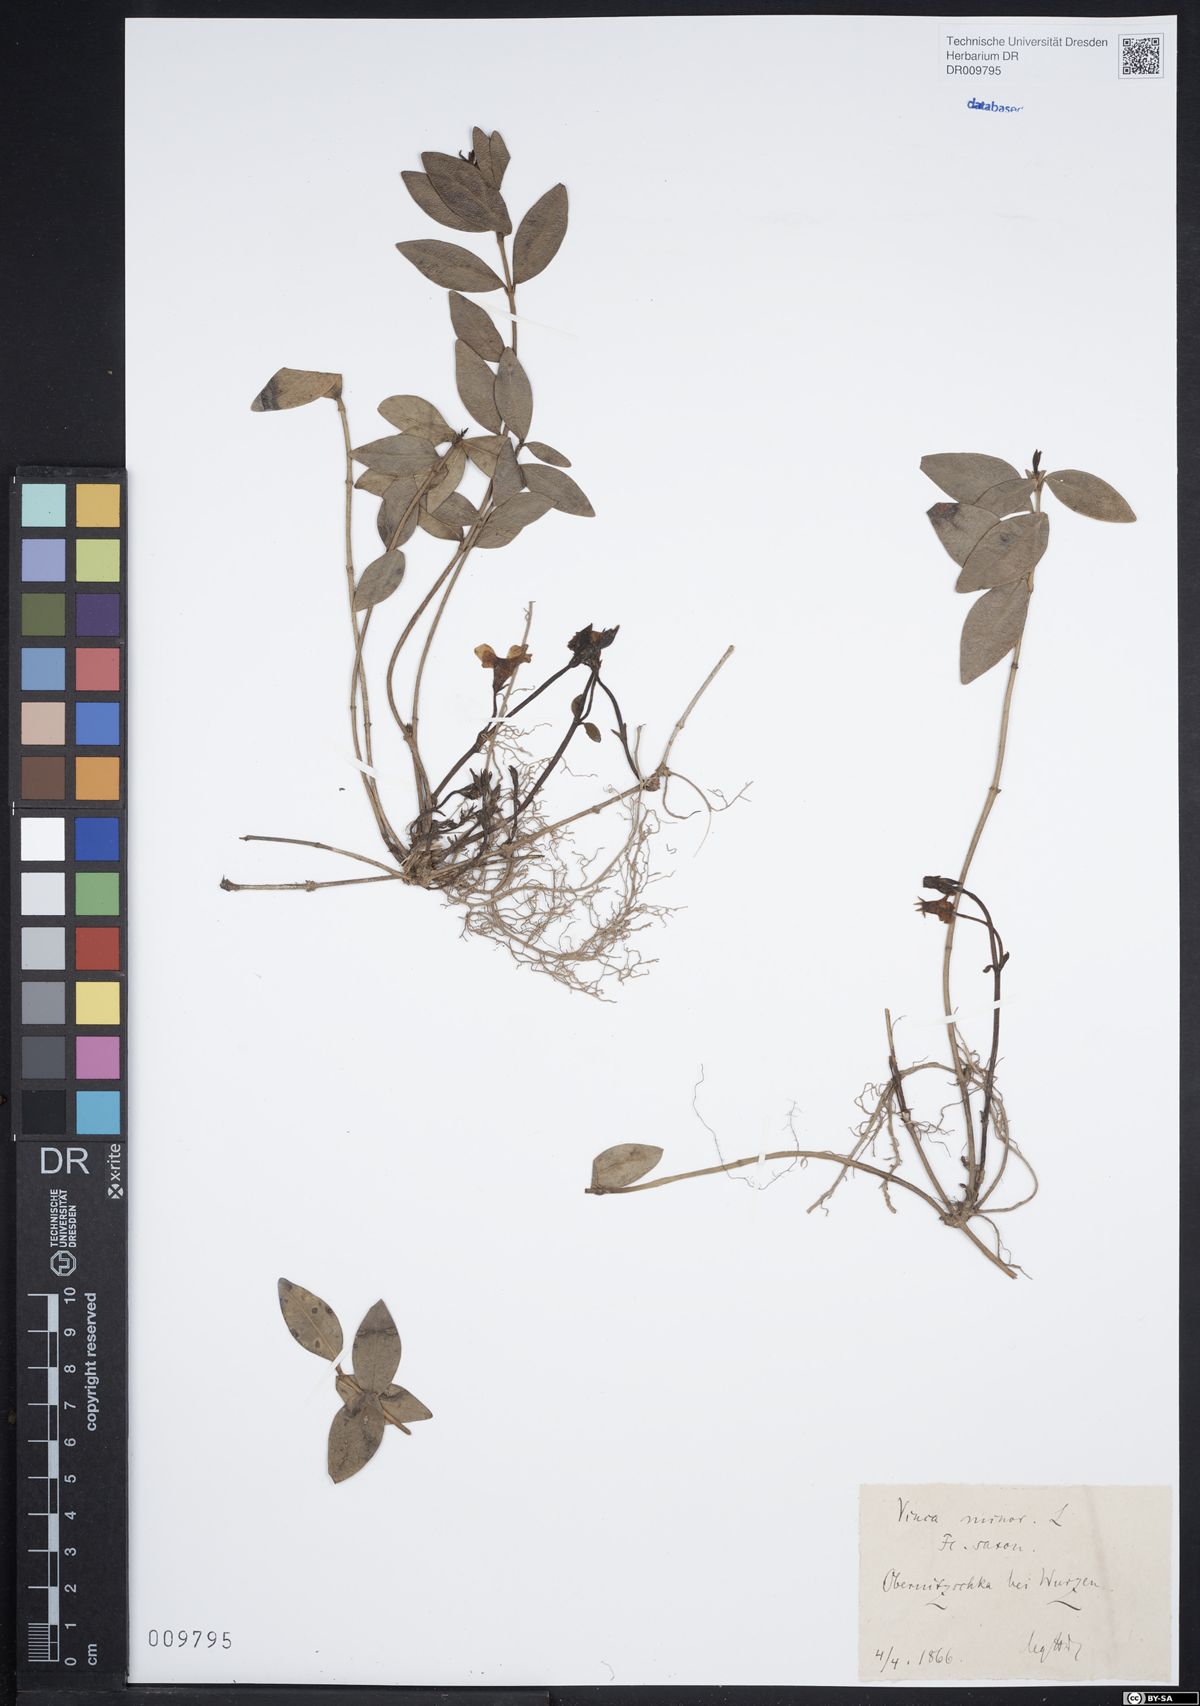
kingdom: Plantae
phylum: Tracheophyta
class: Magnoliopsida
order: Gentianales
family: Apocynaceae
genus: Vinca
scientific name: Vinca minor
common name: Lesser periwinkle
